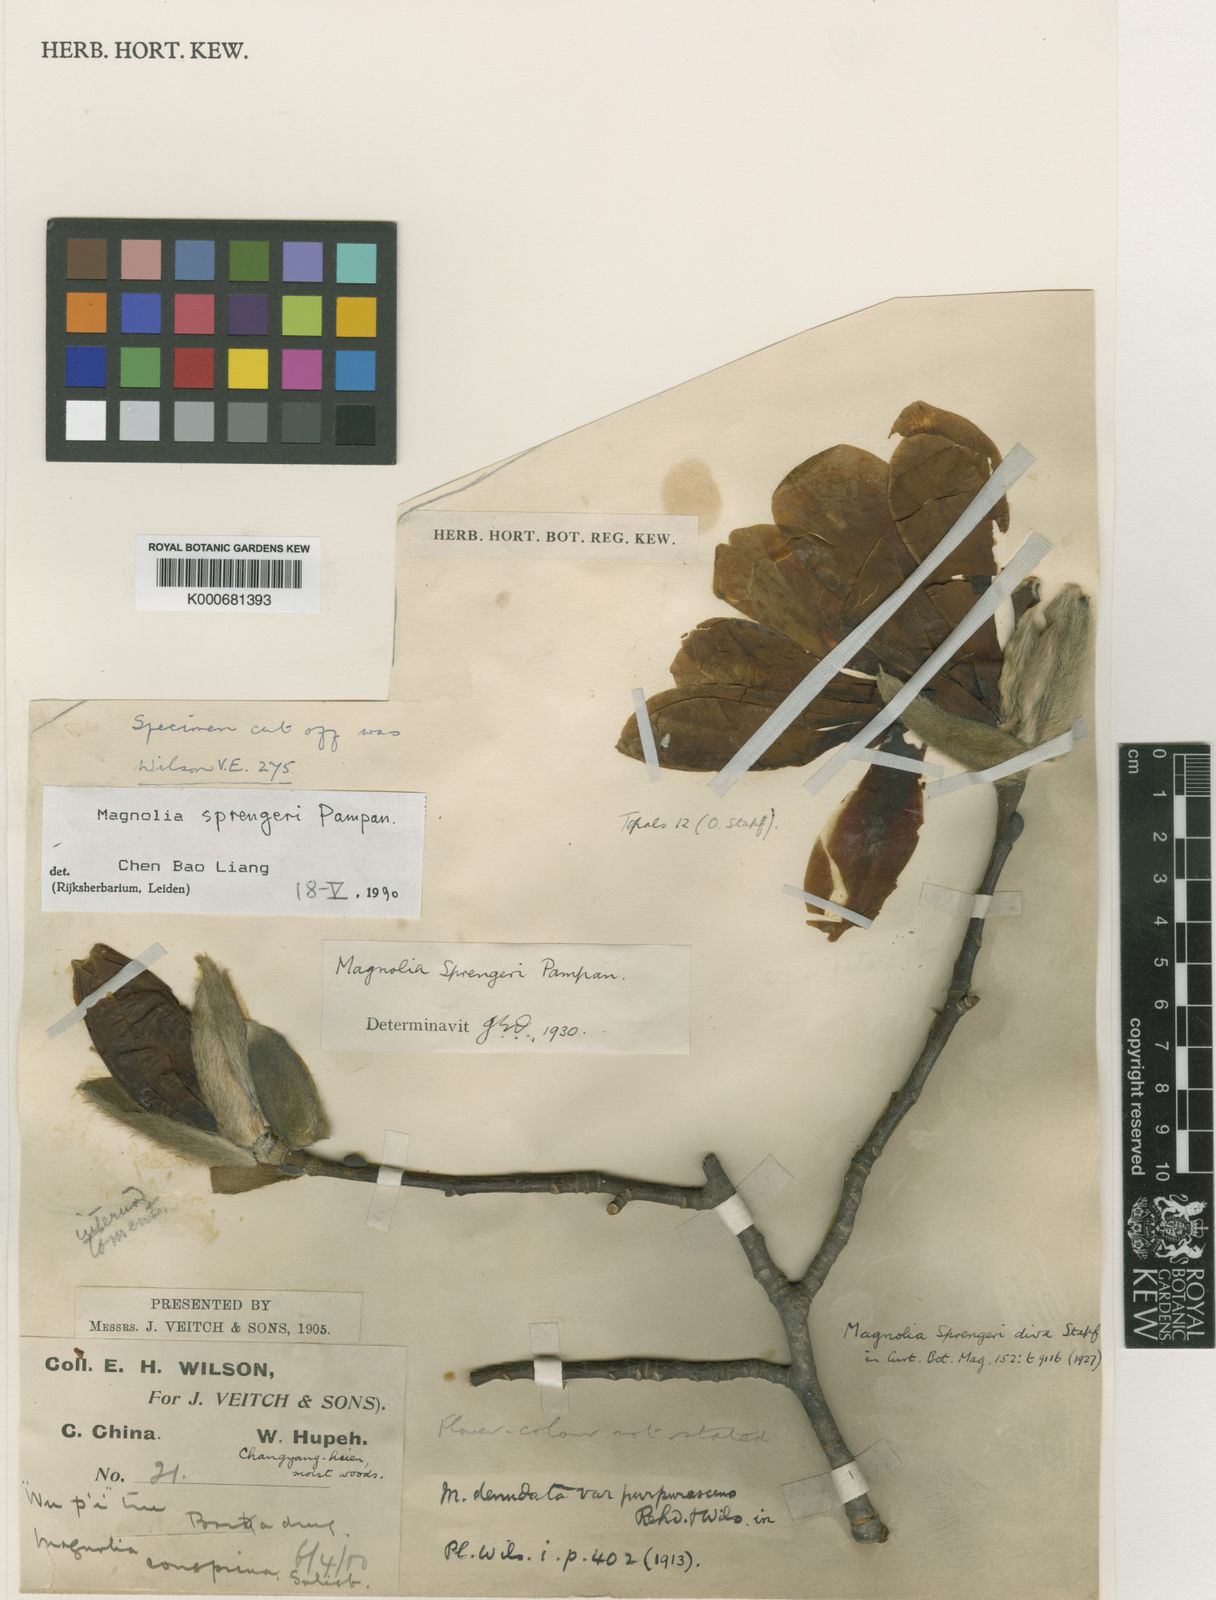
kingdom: Plantae
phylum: Tracheophyta
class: Magnoliopsida
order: Magnoliales
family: Magnoliaceae
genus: Magnolia
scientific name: Magnolia sprengeri
